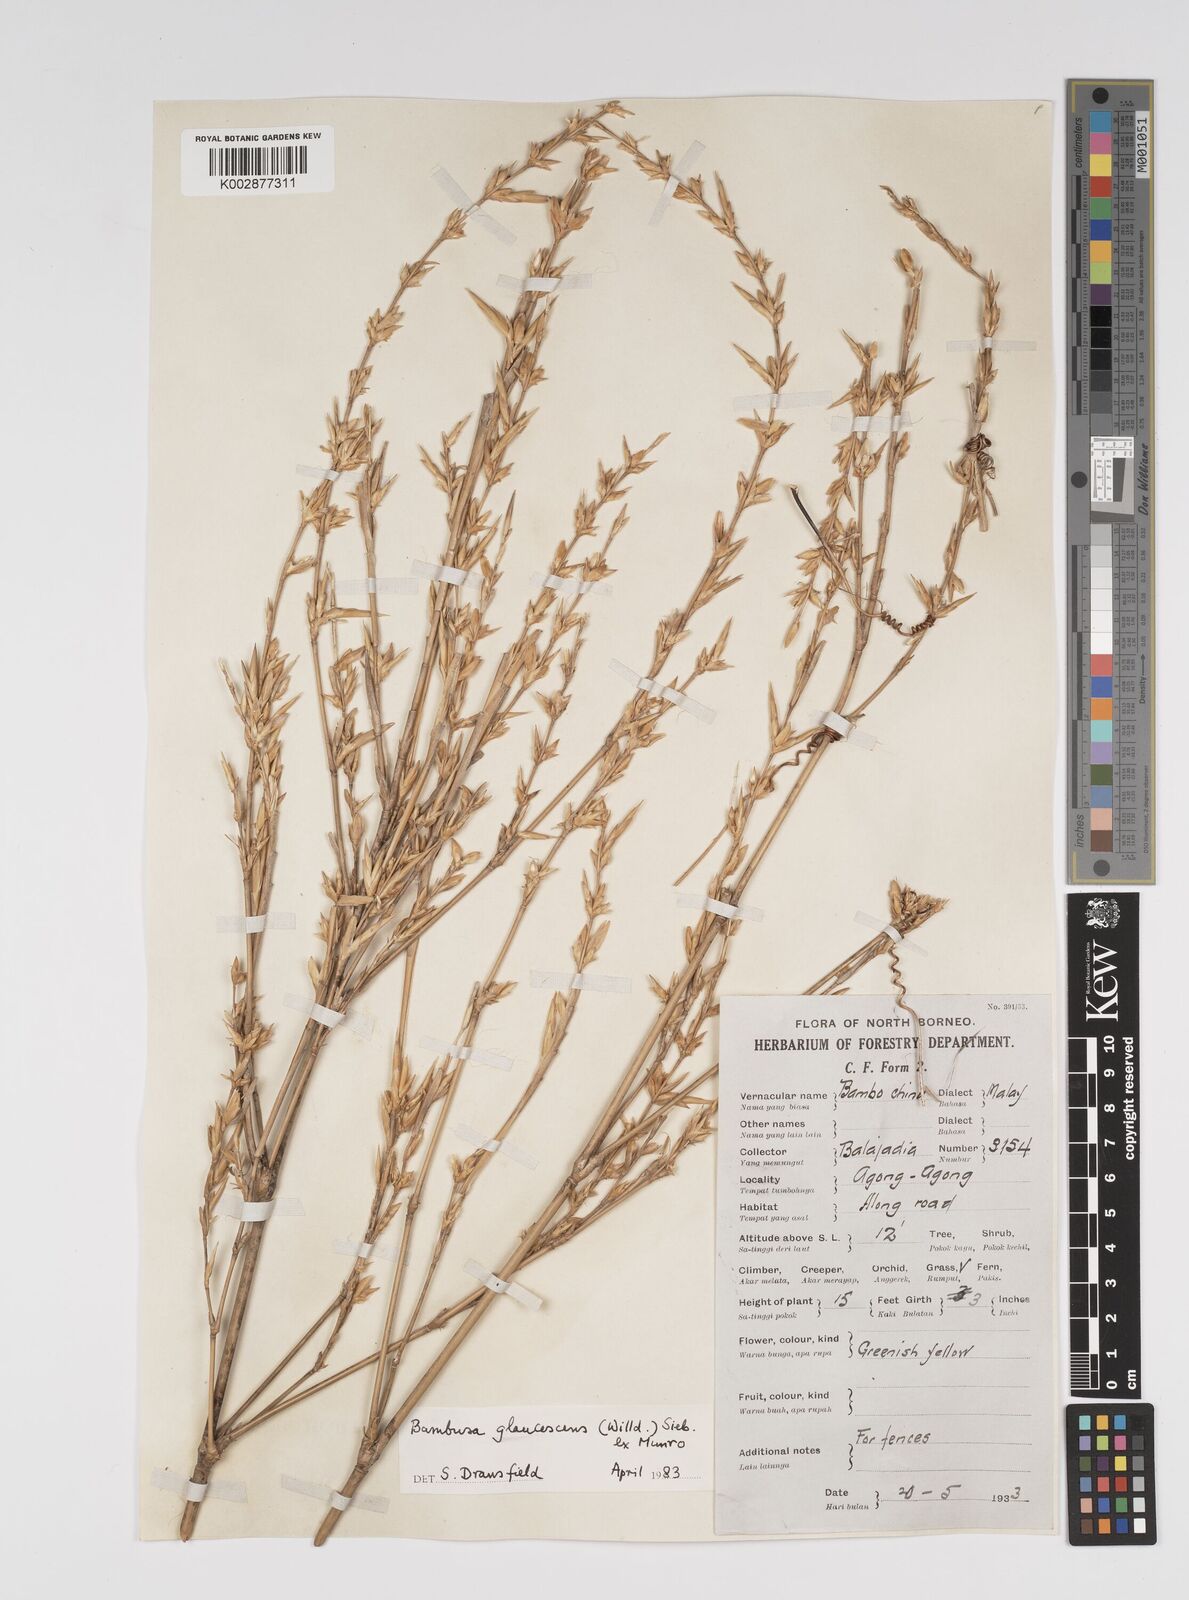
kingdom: Plantae
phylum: Tracheophyta
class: Liliopsida
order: Poales
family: Poaceae
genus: Bambusa
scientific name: Bambusa multiplex
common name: Hedge bamboo
